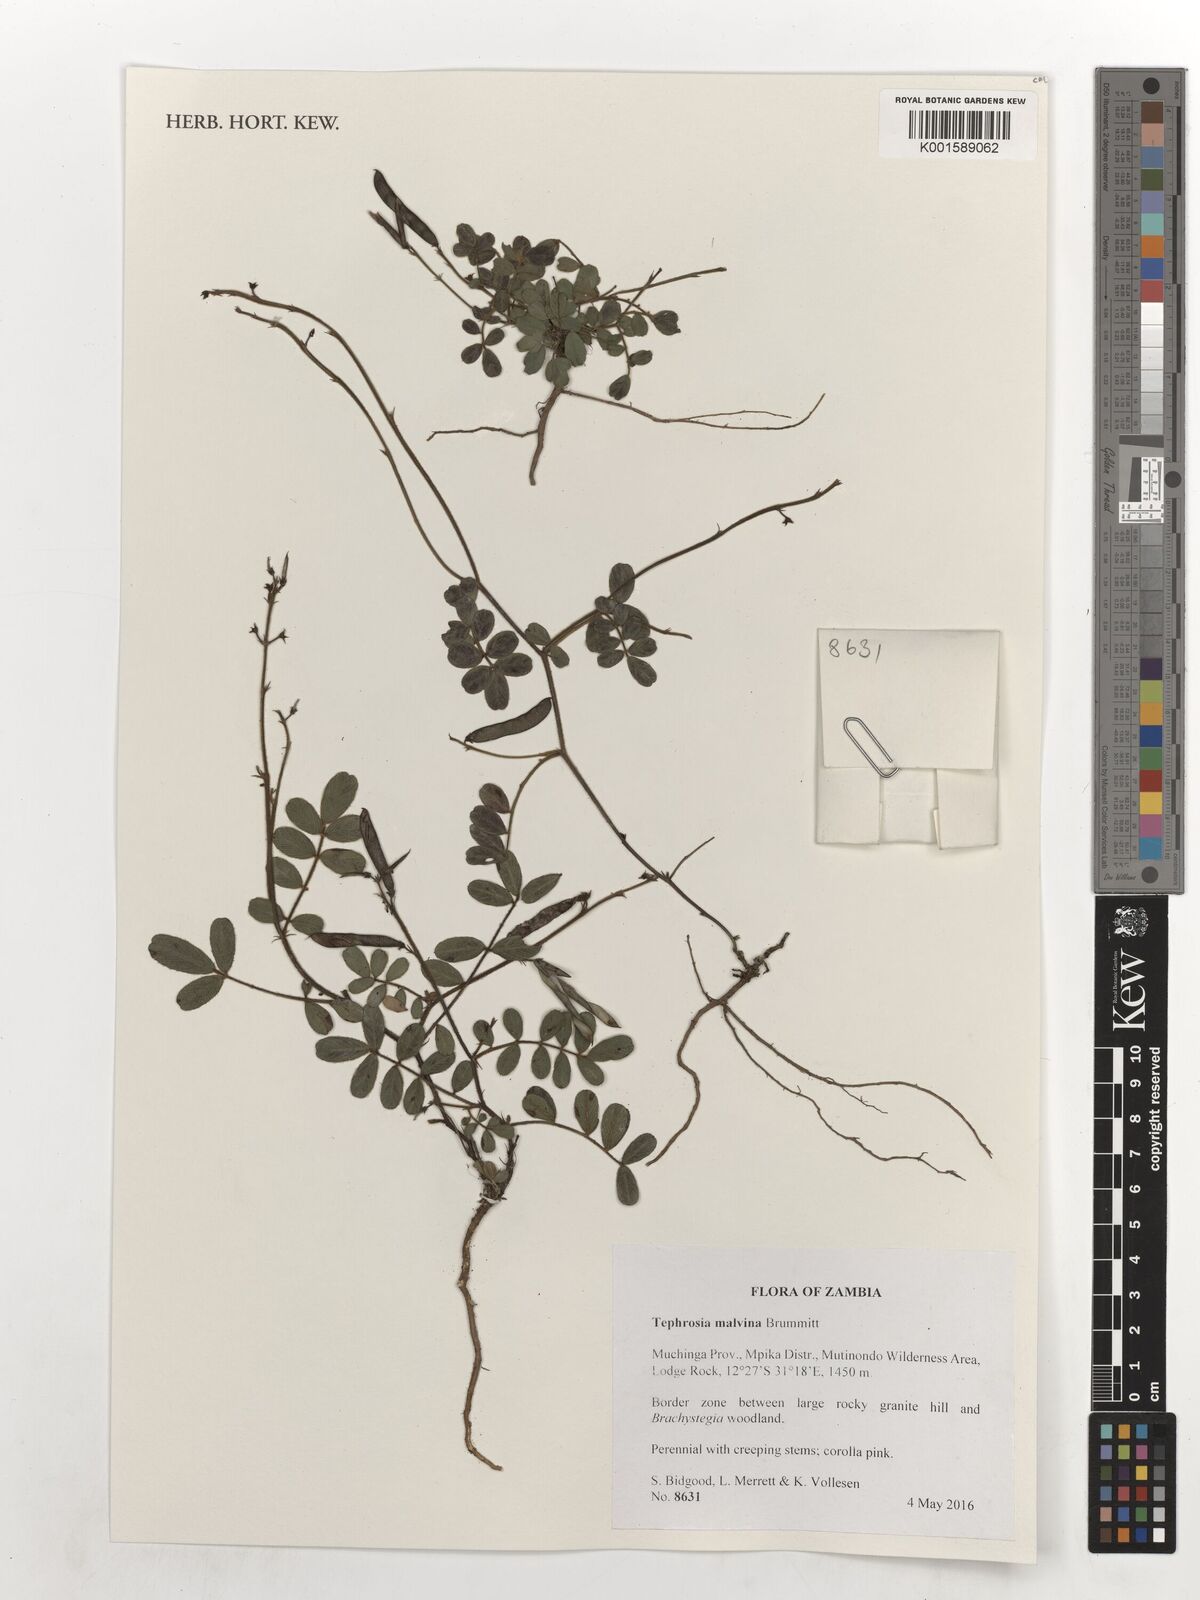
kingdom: Plantae
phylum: Tracheophyta
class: Magnoliopsida
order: Fabales
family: Fabaceae
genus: Tephrosia
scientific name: Tephrosia malvina
